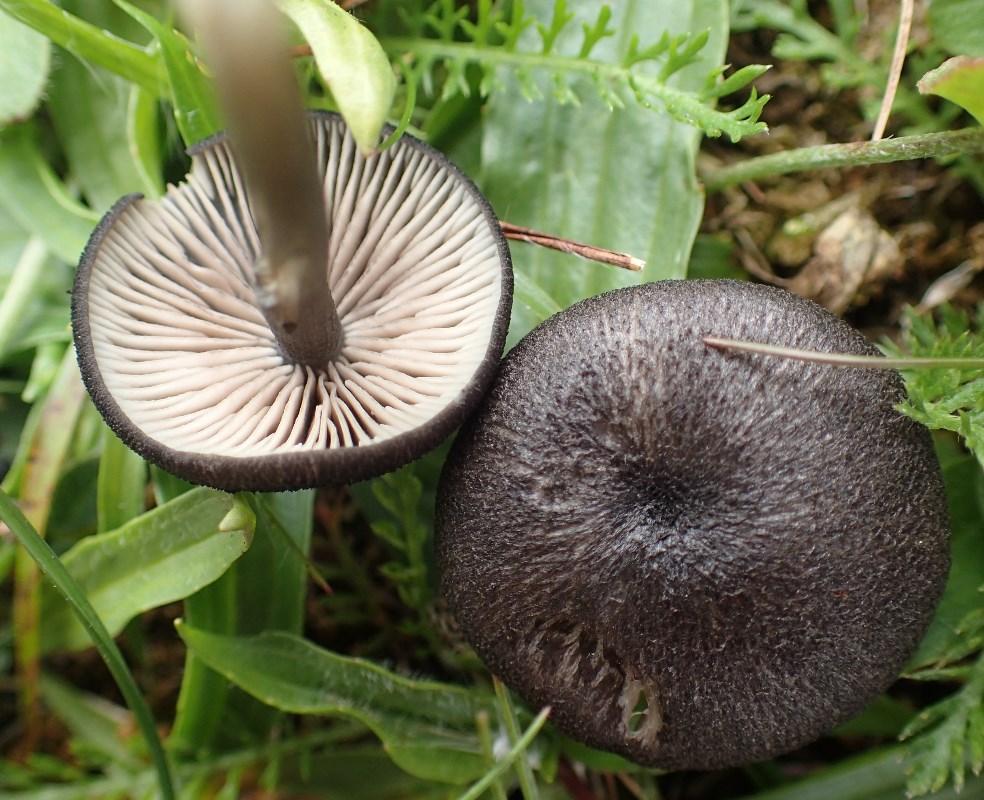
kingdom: Fungi
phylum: Basidiomycota
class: Agaricomycetes
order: Agaricales
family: Entolomataceae
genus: Entoloma
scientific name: Entoloma
